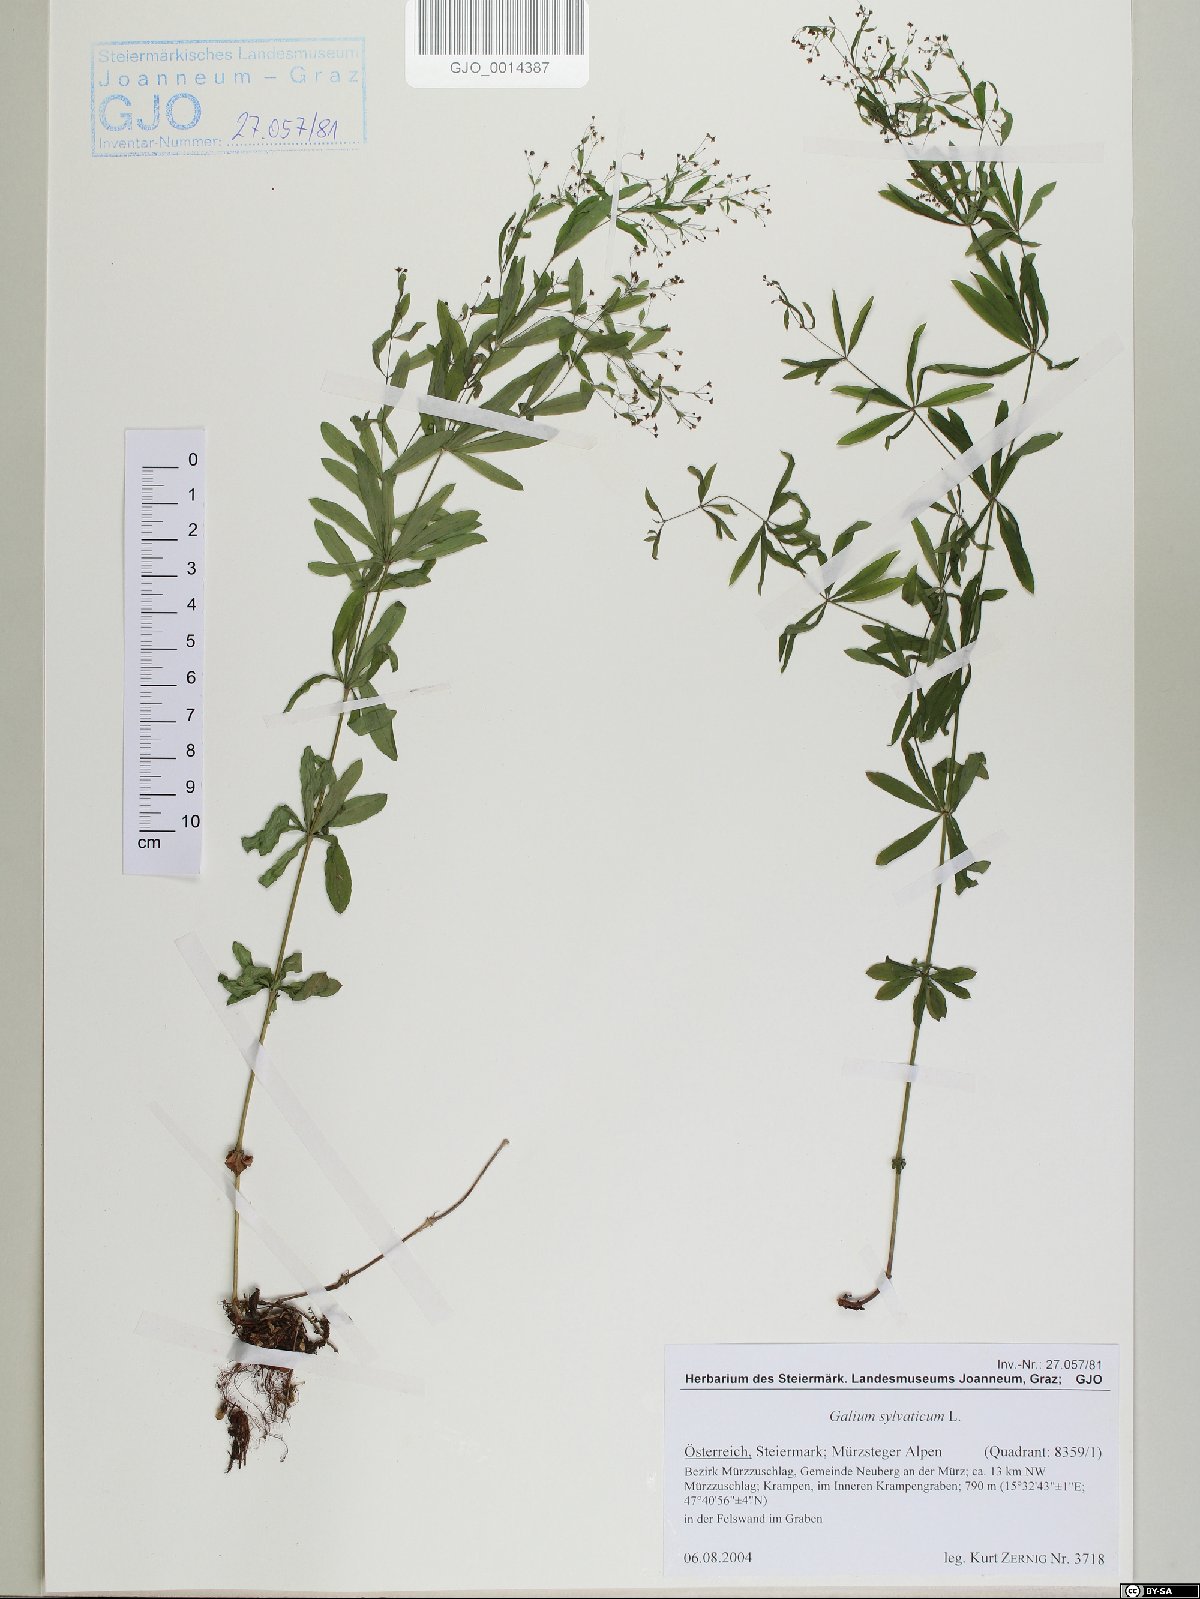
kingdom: Plantae
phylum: Tracheophyta
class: Magnoliopsida
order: Gentianales
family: Rubiaceae
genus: Galium
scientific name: Galium sylvaticum
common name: Wood bedstraw
